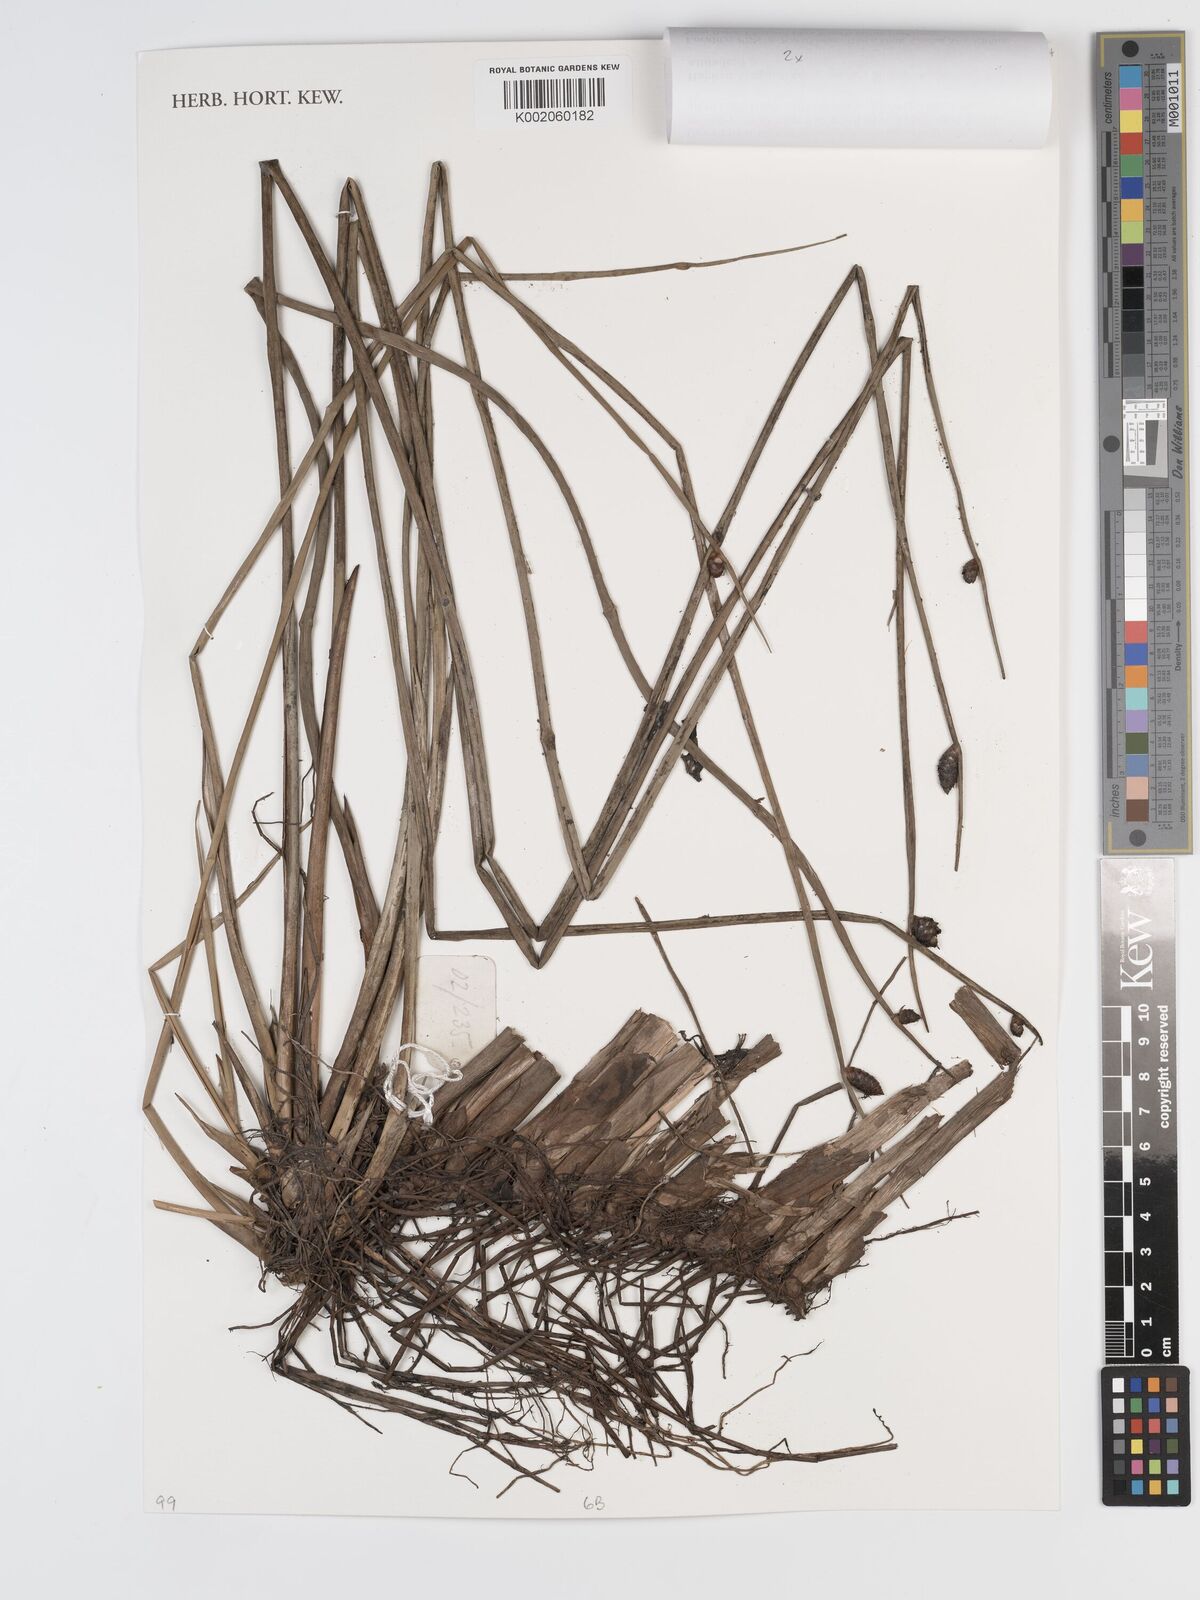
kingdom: Plantae
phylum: Tracheophyta
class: Liliopsida
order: Poales
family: Cyperaceae
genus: Lepironia
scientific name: Lepironia articulata
